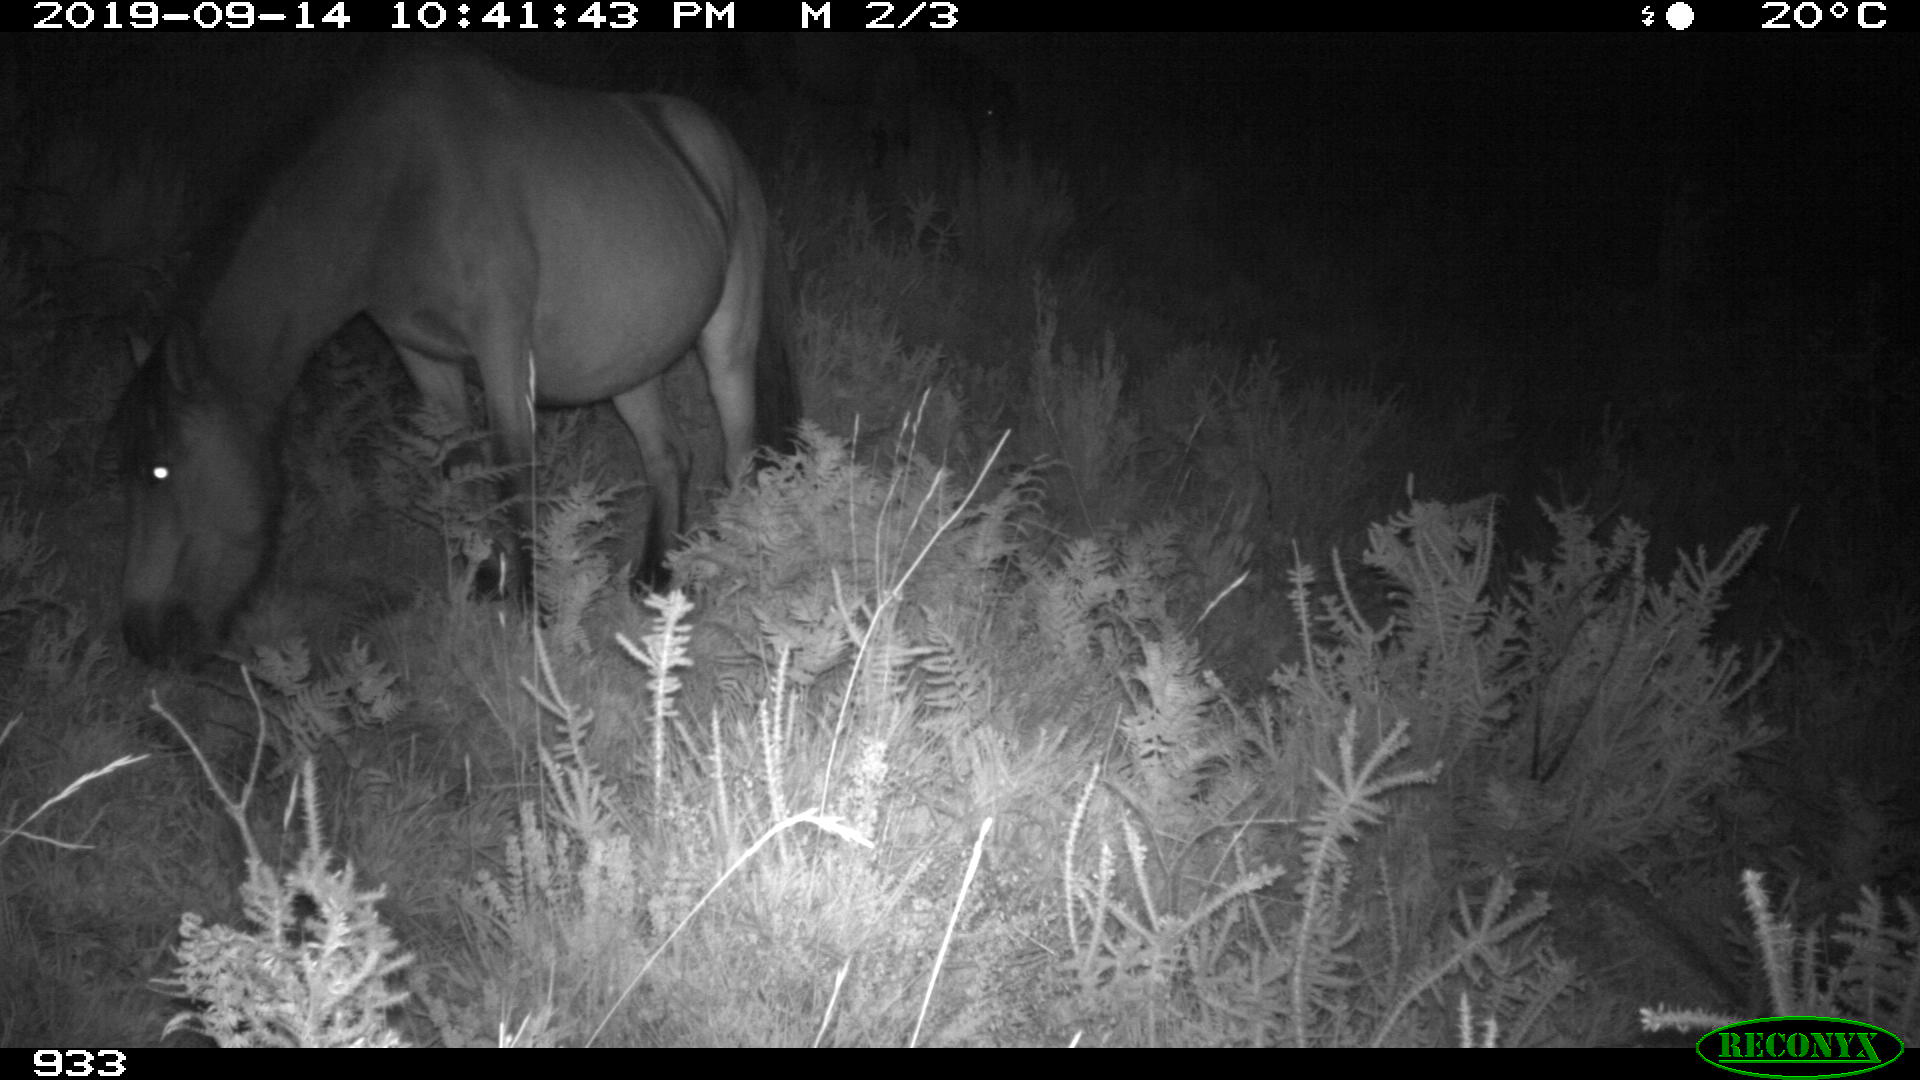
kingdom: Animalia
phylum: Chordata
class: Mammalia
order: Perissodactyla
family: Equidae
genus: Equus
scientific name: Equus caballus
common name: Horse
